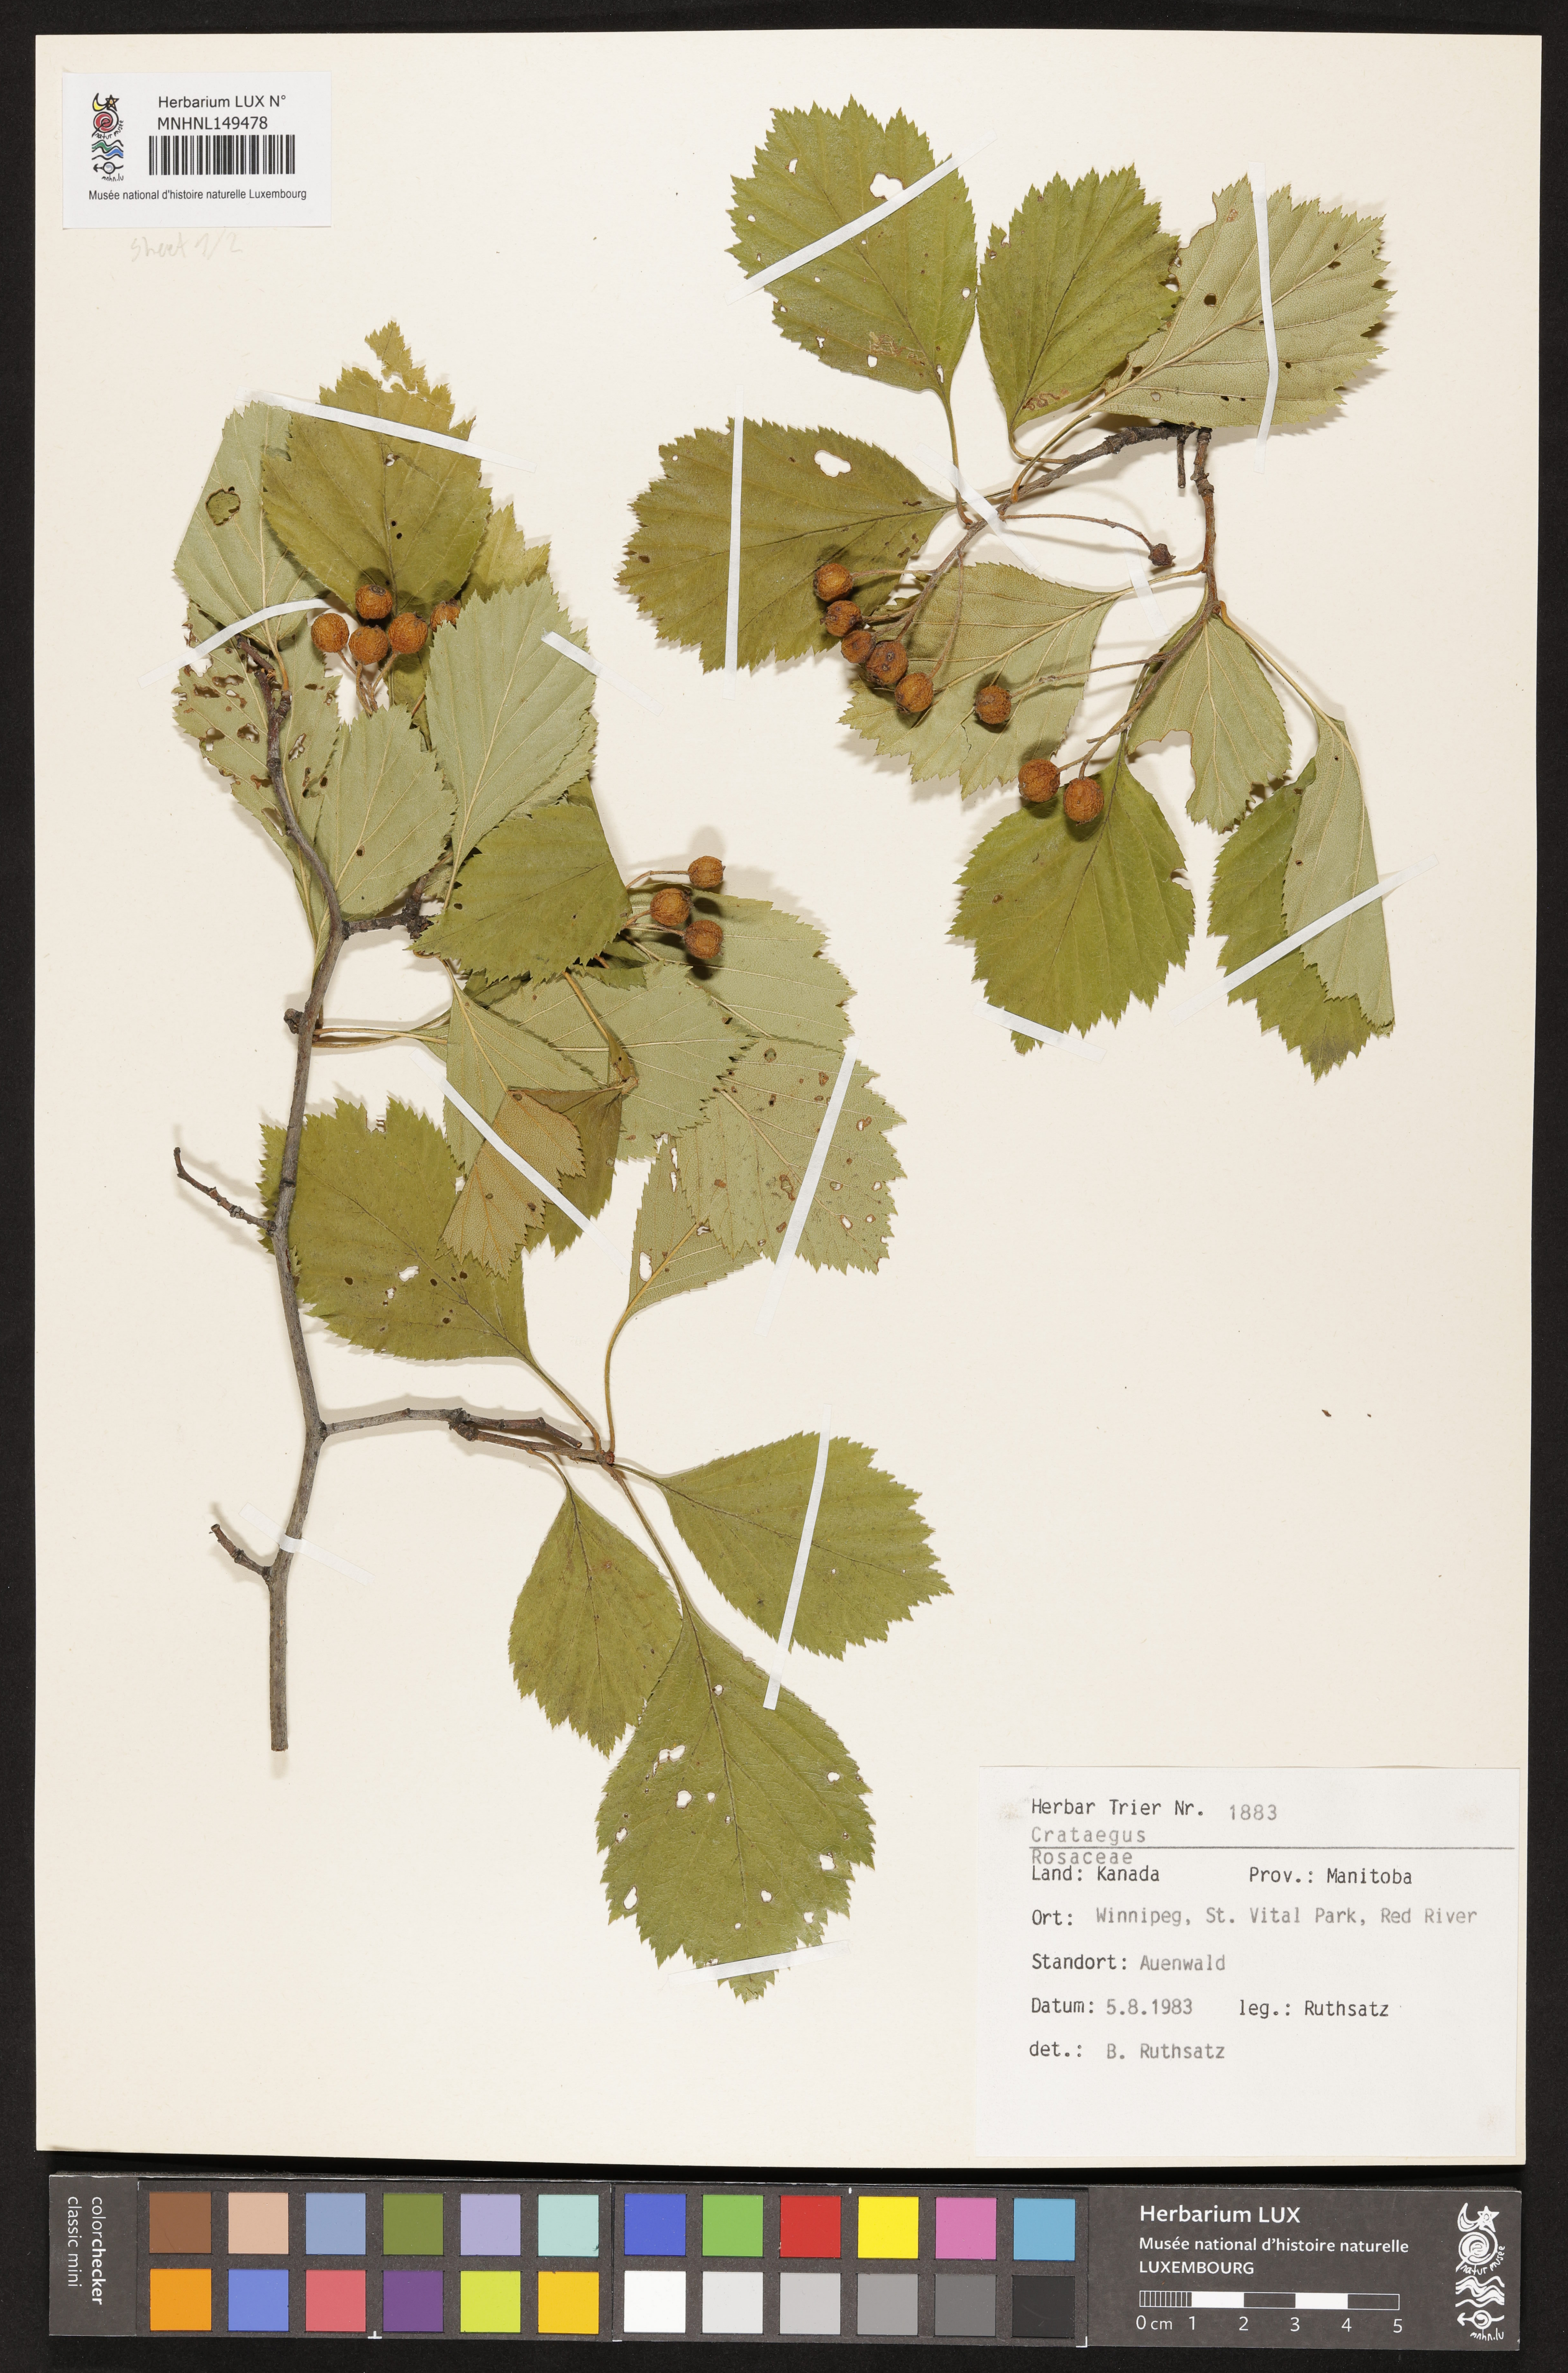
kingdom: Plantae
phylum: Tracheophyta
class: Magnoliopsida
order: Rosales
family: Rosaceae
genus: Crataegus
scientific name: Crataegus
